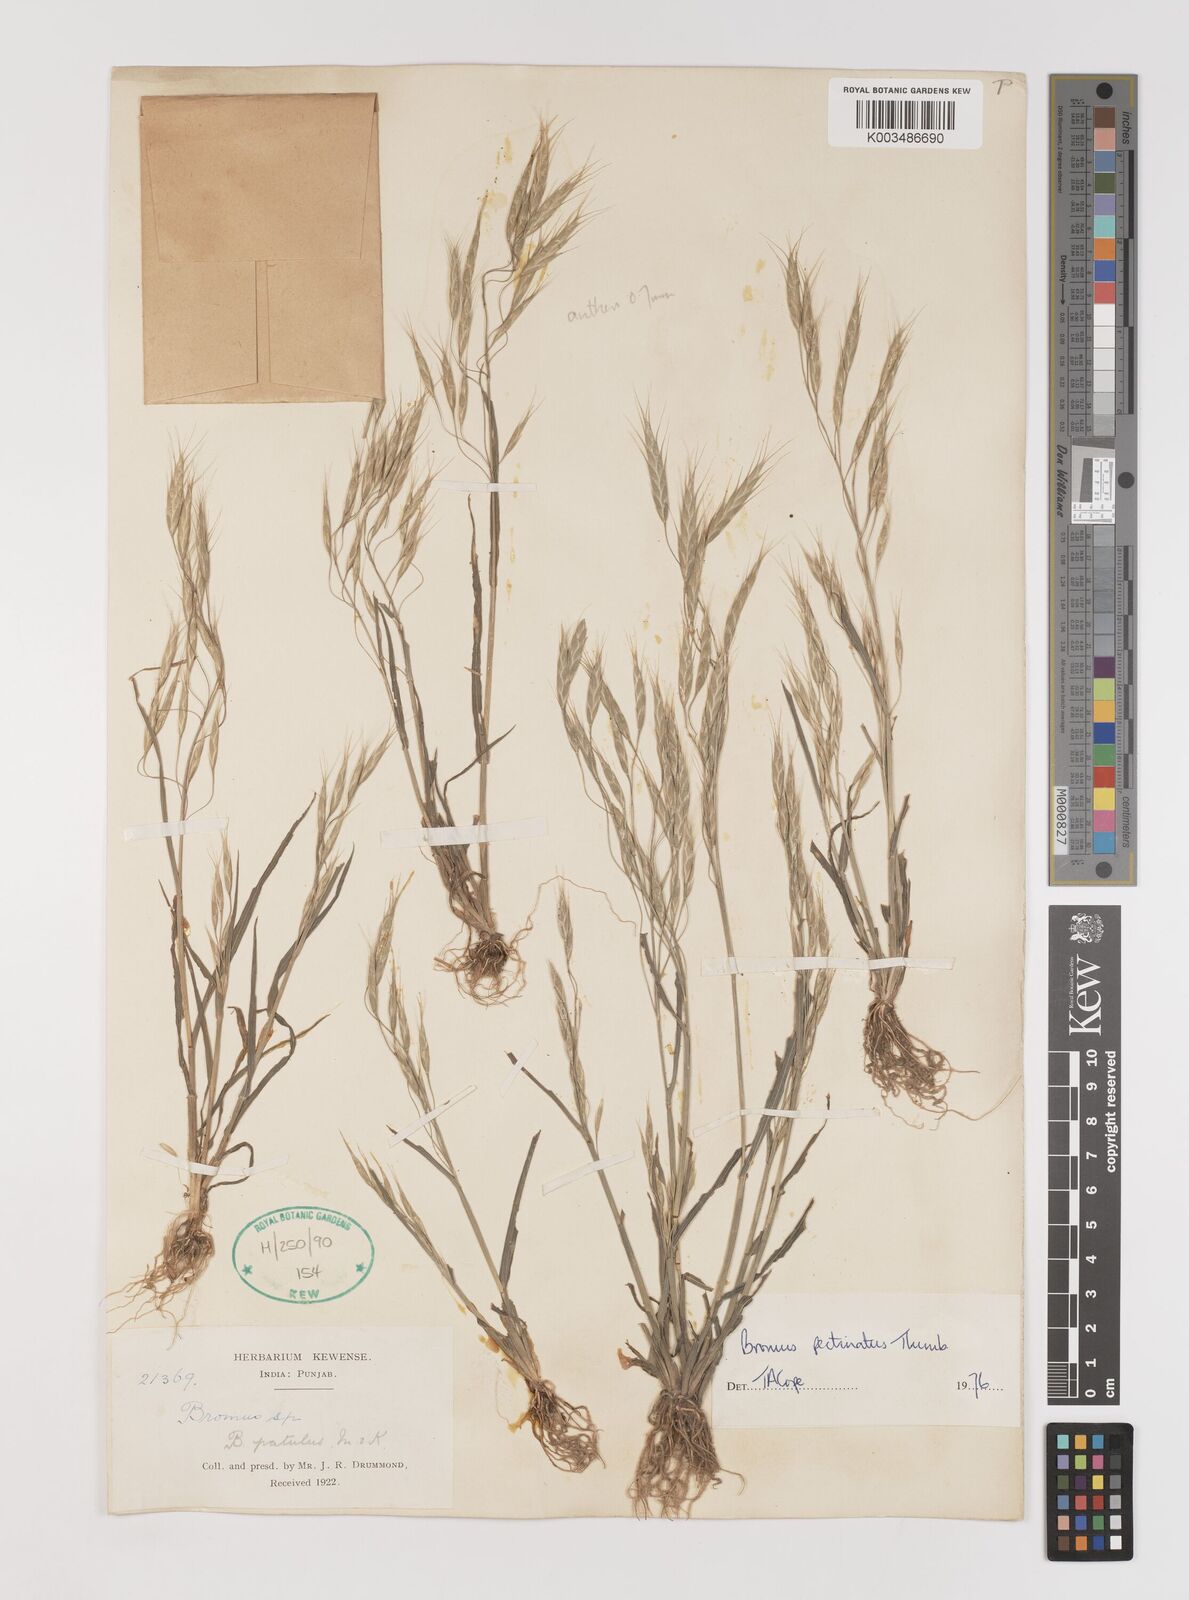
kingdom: Plantae
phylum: Tracheophyta
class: Liliopsida
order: Poales
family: Poaceae
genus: Bromus
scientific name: Bromus pectinatus
